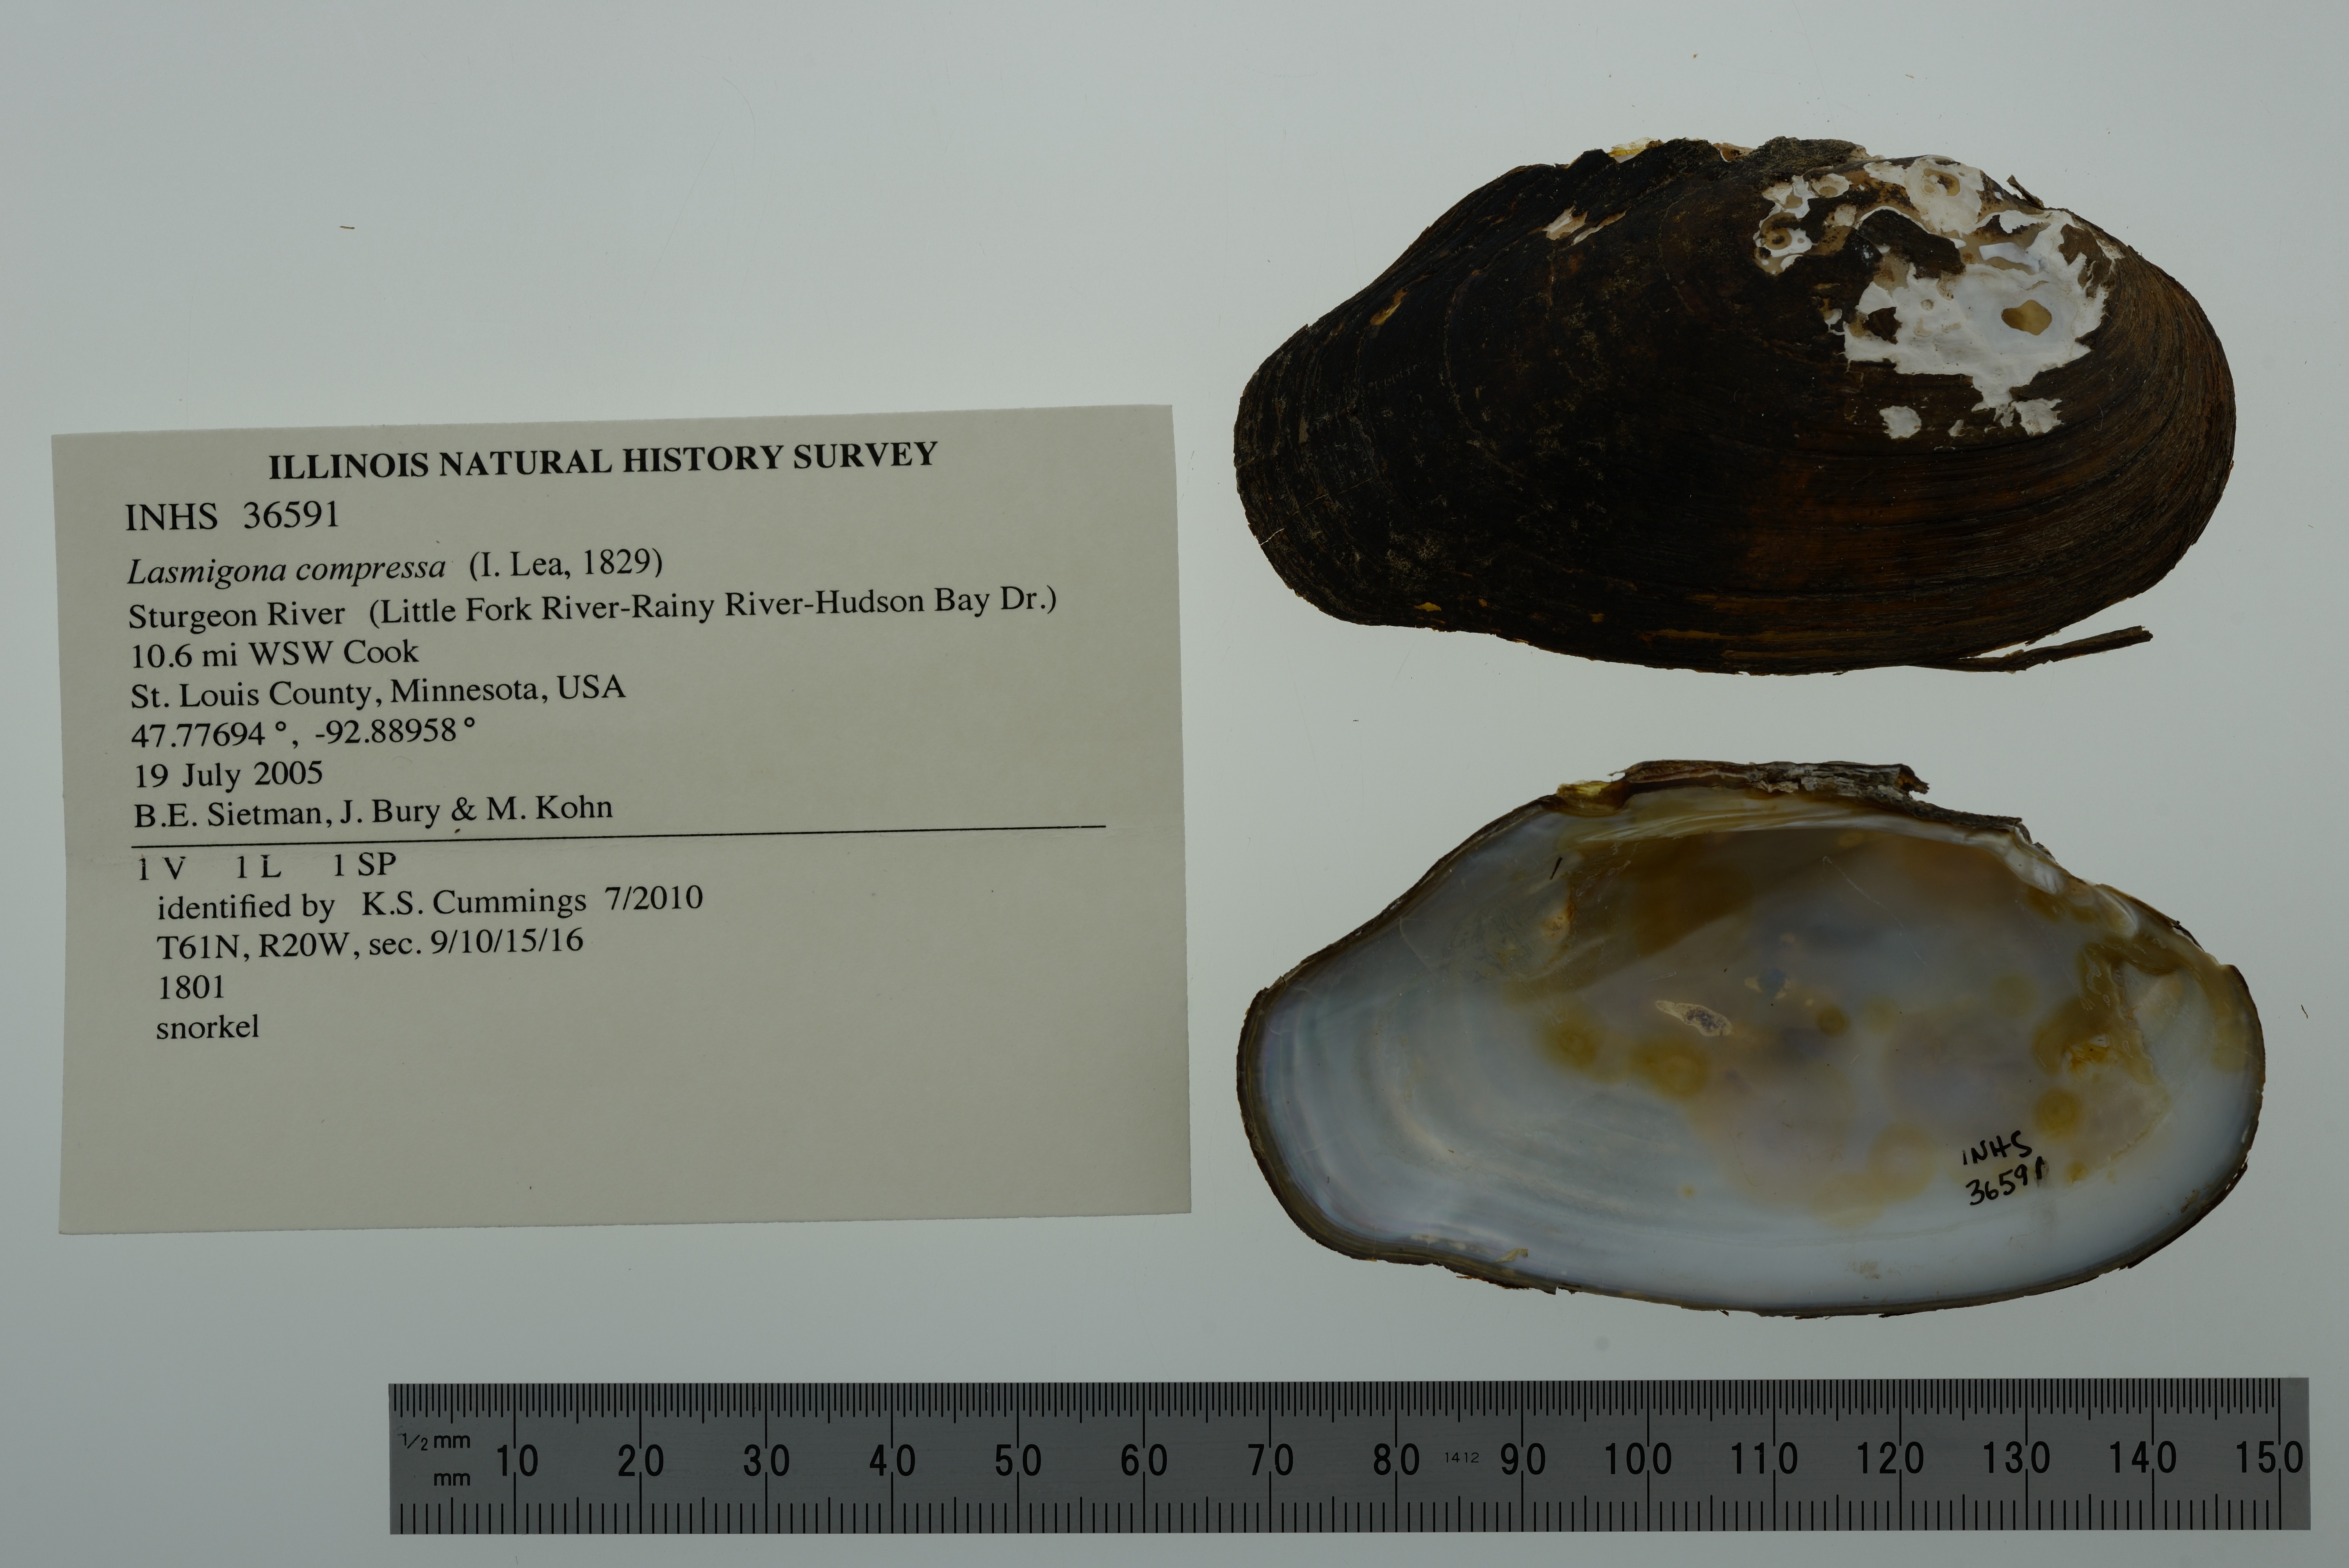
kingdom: Animalia
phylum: Mollusca
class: Bivalvia
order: Unionida
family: Unionidae
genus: Lasmigona
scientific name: Lasmigona compressa
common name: Creek heelsplitter
